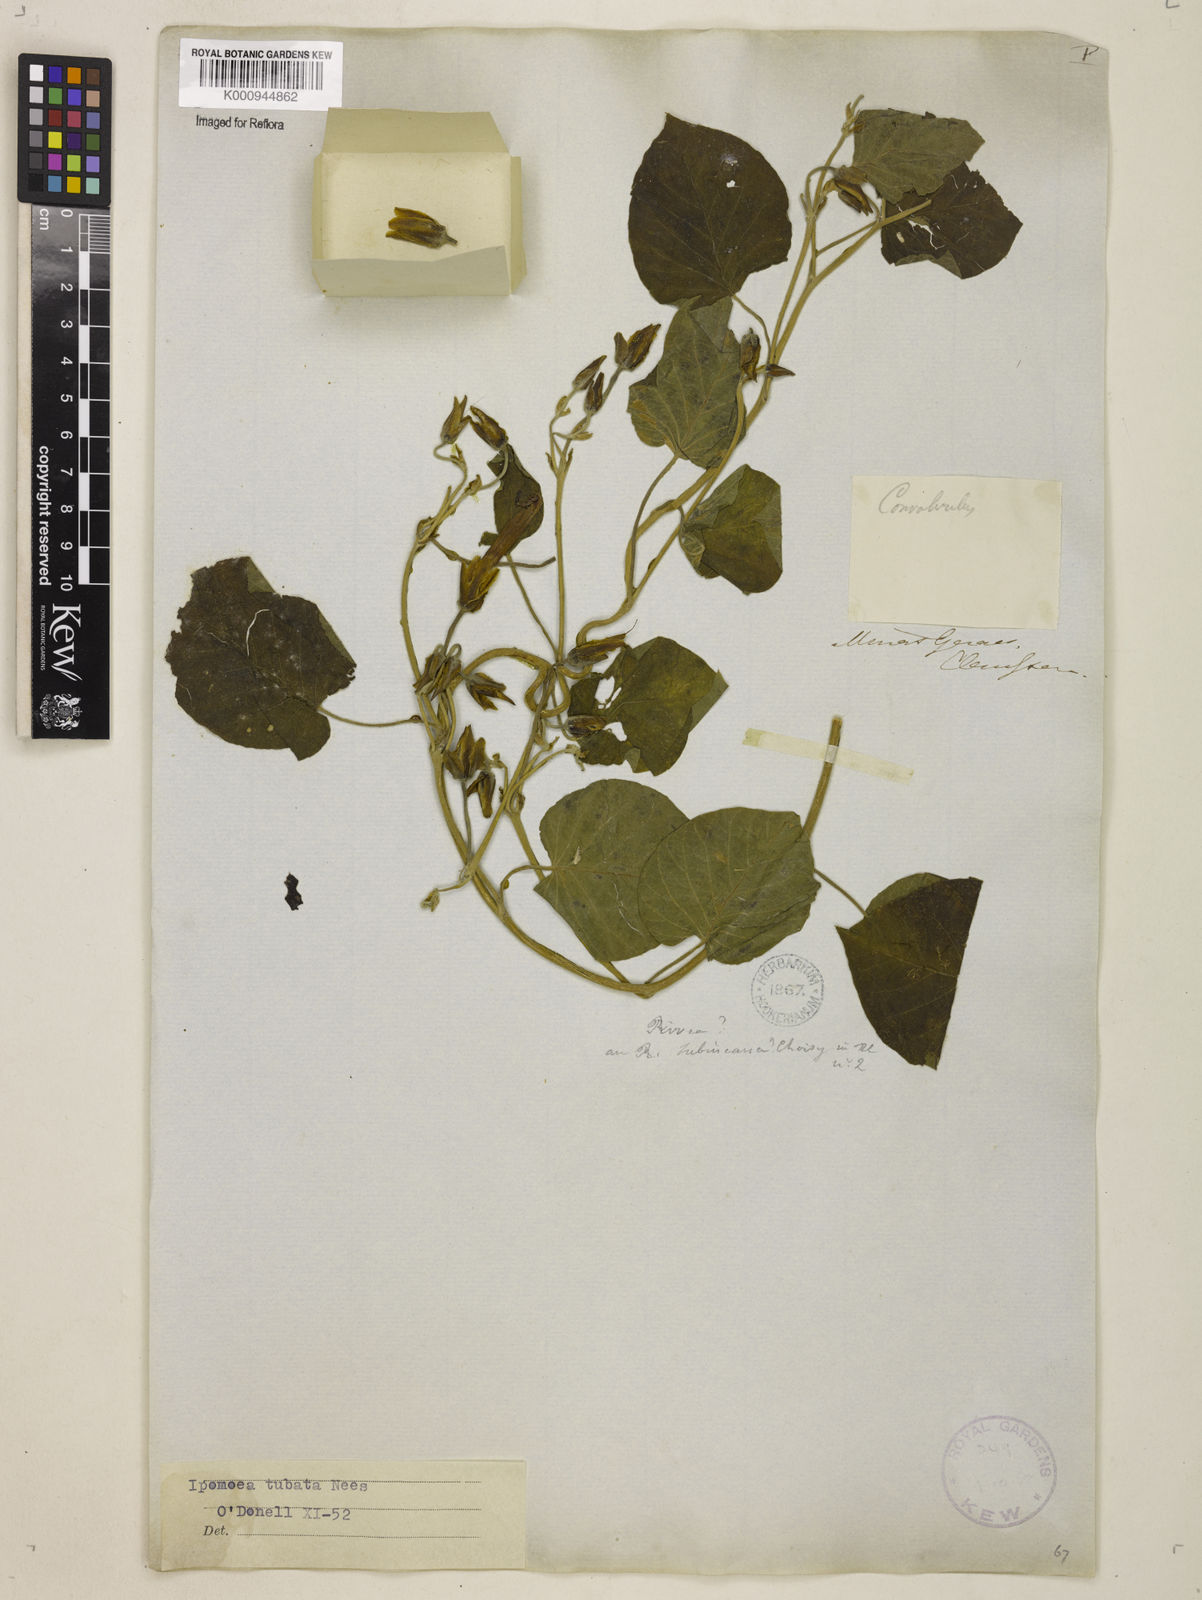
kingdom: Plantae
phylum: Tracheophyta
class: Magnoliopsida
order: Solanales
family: Convolvulaceae
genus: Ipomoea
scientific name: Ipomoea sidifolia
